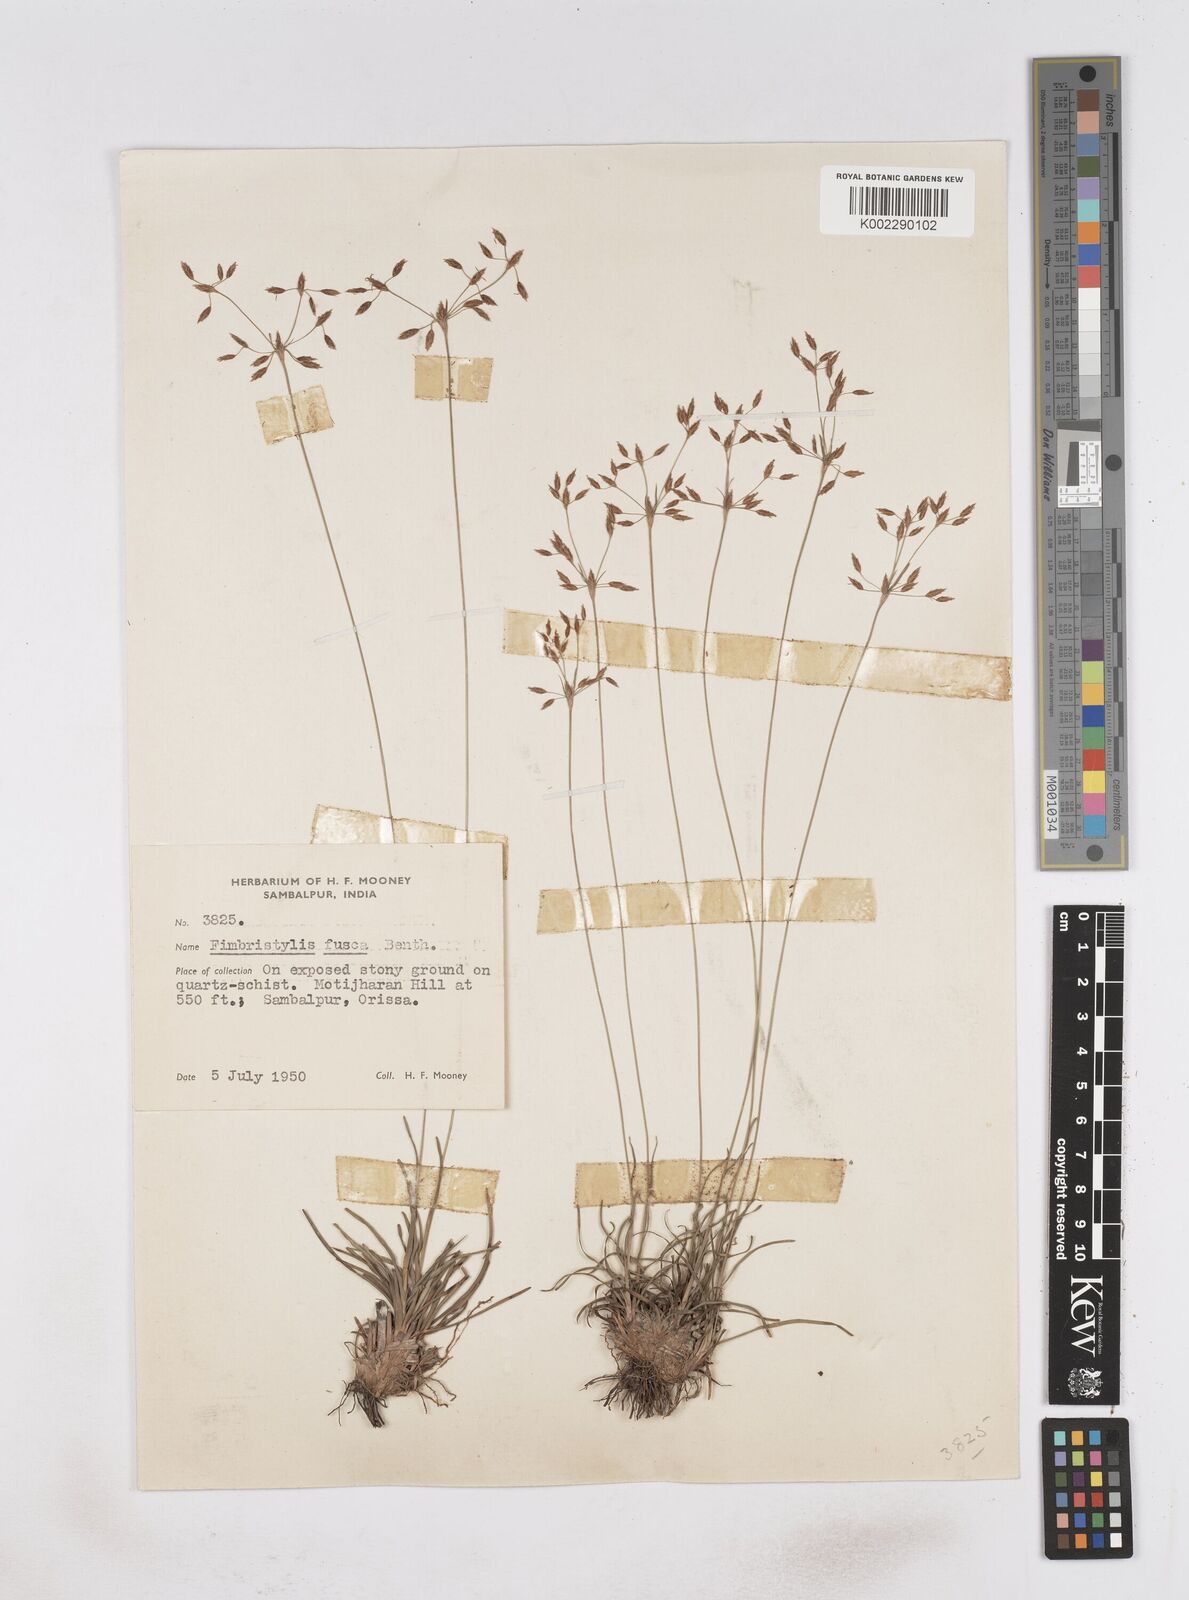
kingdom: Plantae
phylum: Tracheophyta
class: Liliopsida
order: Poales
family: Cyperaceae
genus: Fimbristylis
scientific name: Fimbristylis fusca
